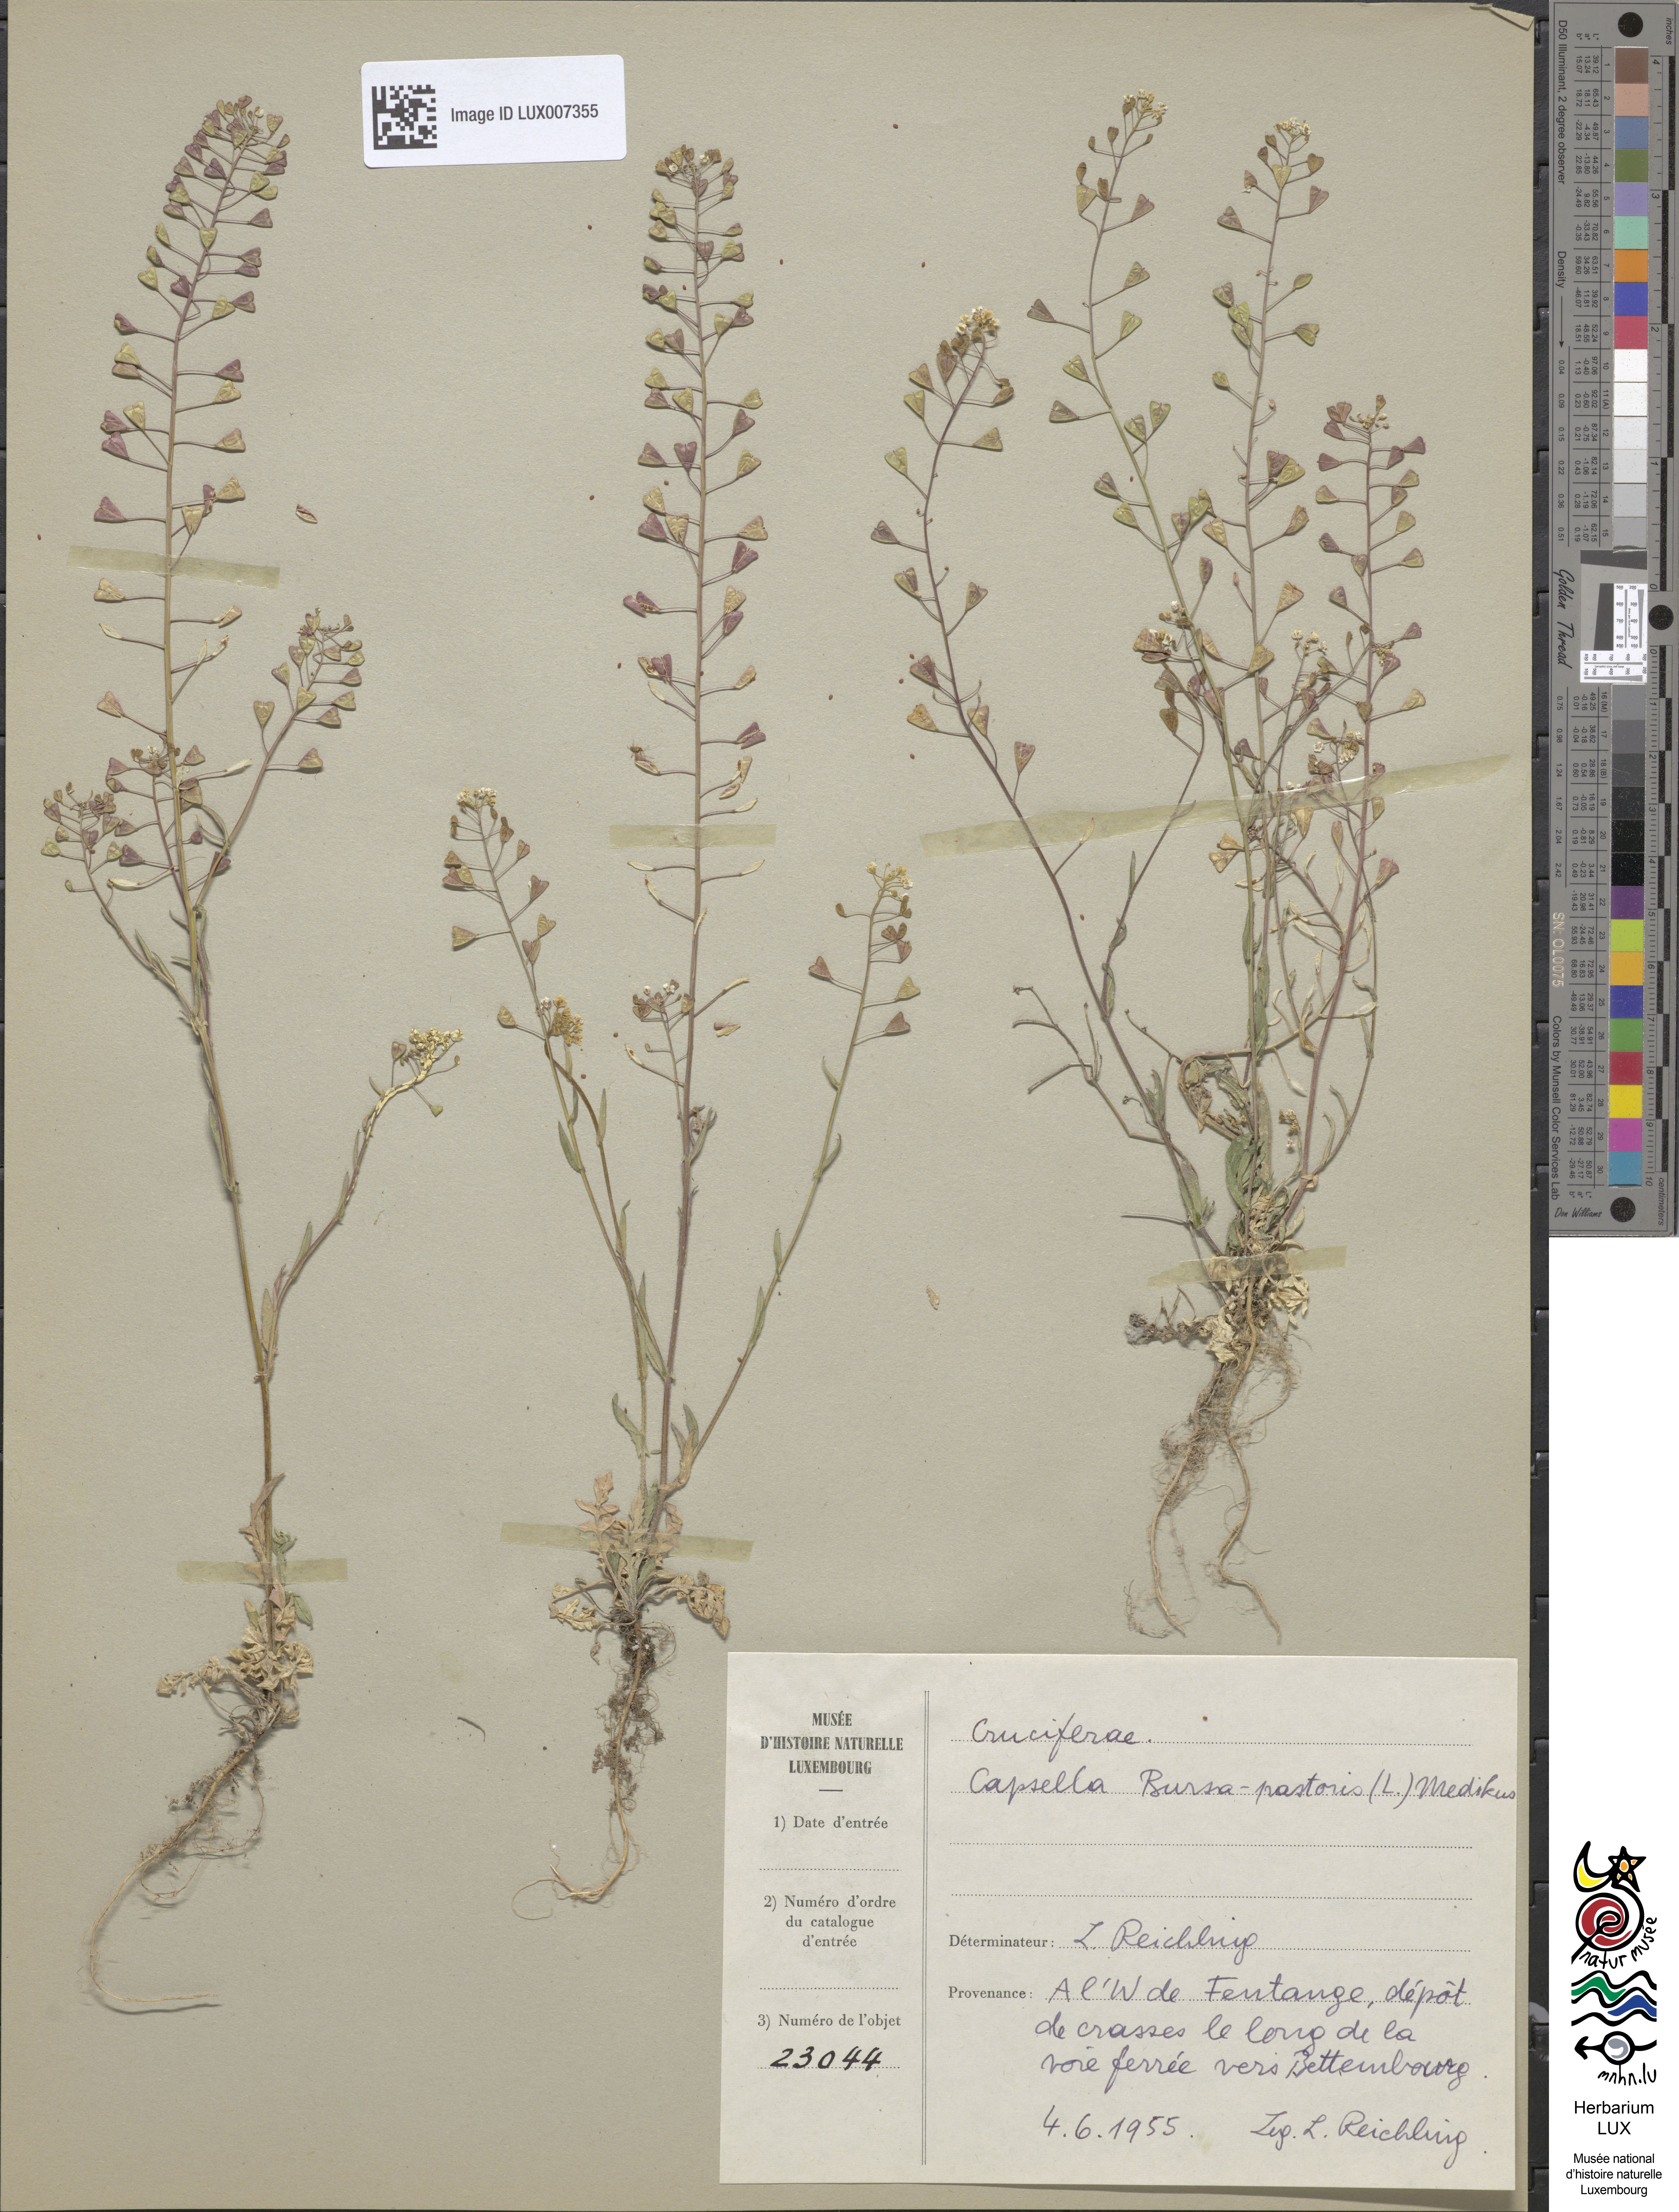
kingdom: Plantae
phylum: Tracheophyta
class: Magnoliopsida
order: Brassicales
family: Brassicaceae
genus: Capsella
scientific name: Capsella bursa-pastoris
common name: Shepherd's purse
